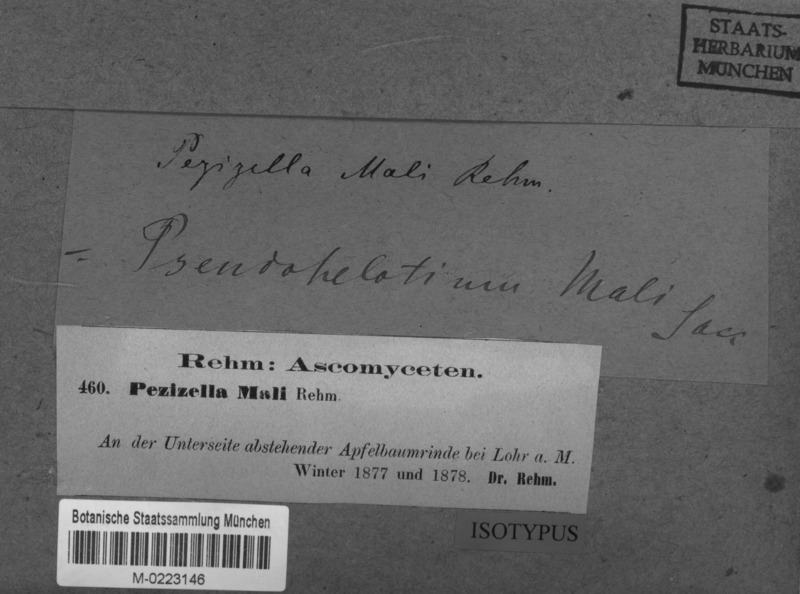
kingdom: Fungi
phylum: Ascomycota
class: Leotiomycetes
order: Helotiales
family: Hyaloscyphaceae
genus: Cistella
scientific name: Cistella mali
